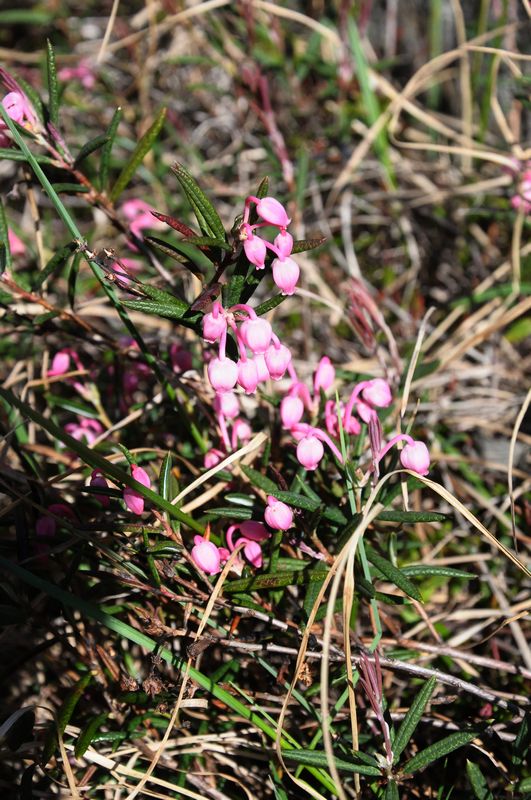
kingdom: Plantae
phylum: Tracheophyta
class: Magnoliopsida
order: Ericales
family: Ericaceae
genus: Andromeda
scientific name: Andromeda polifolia
